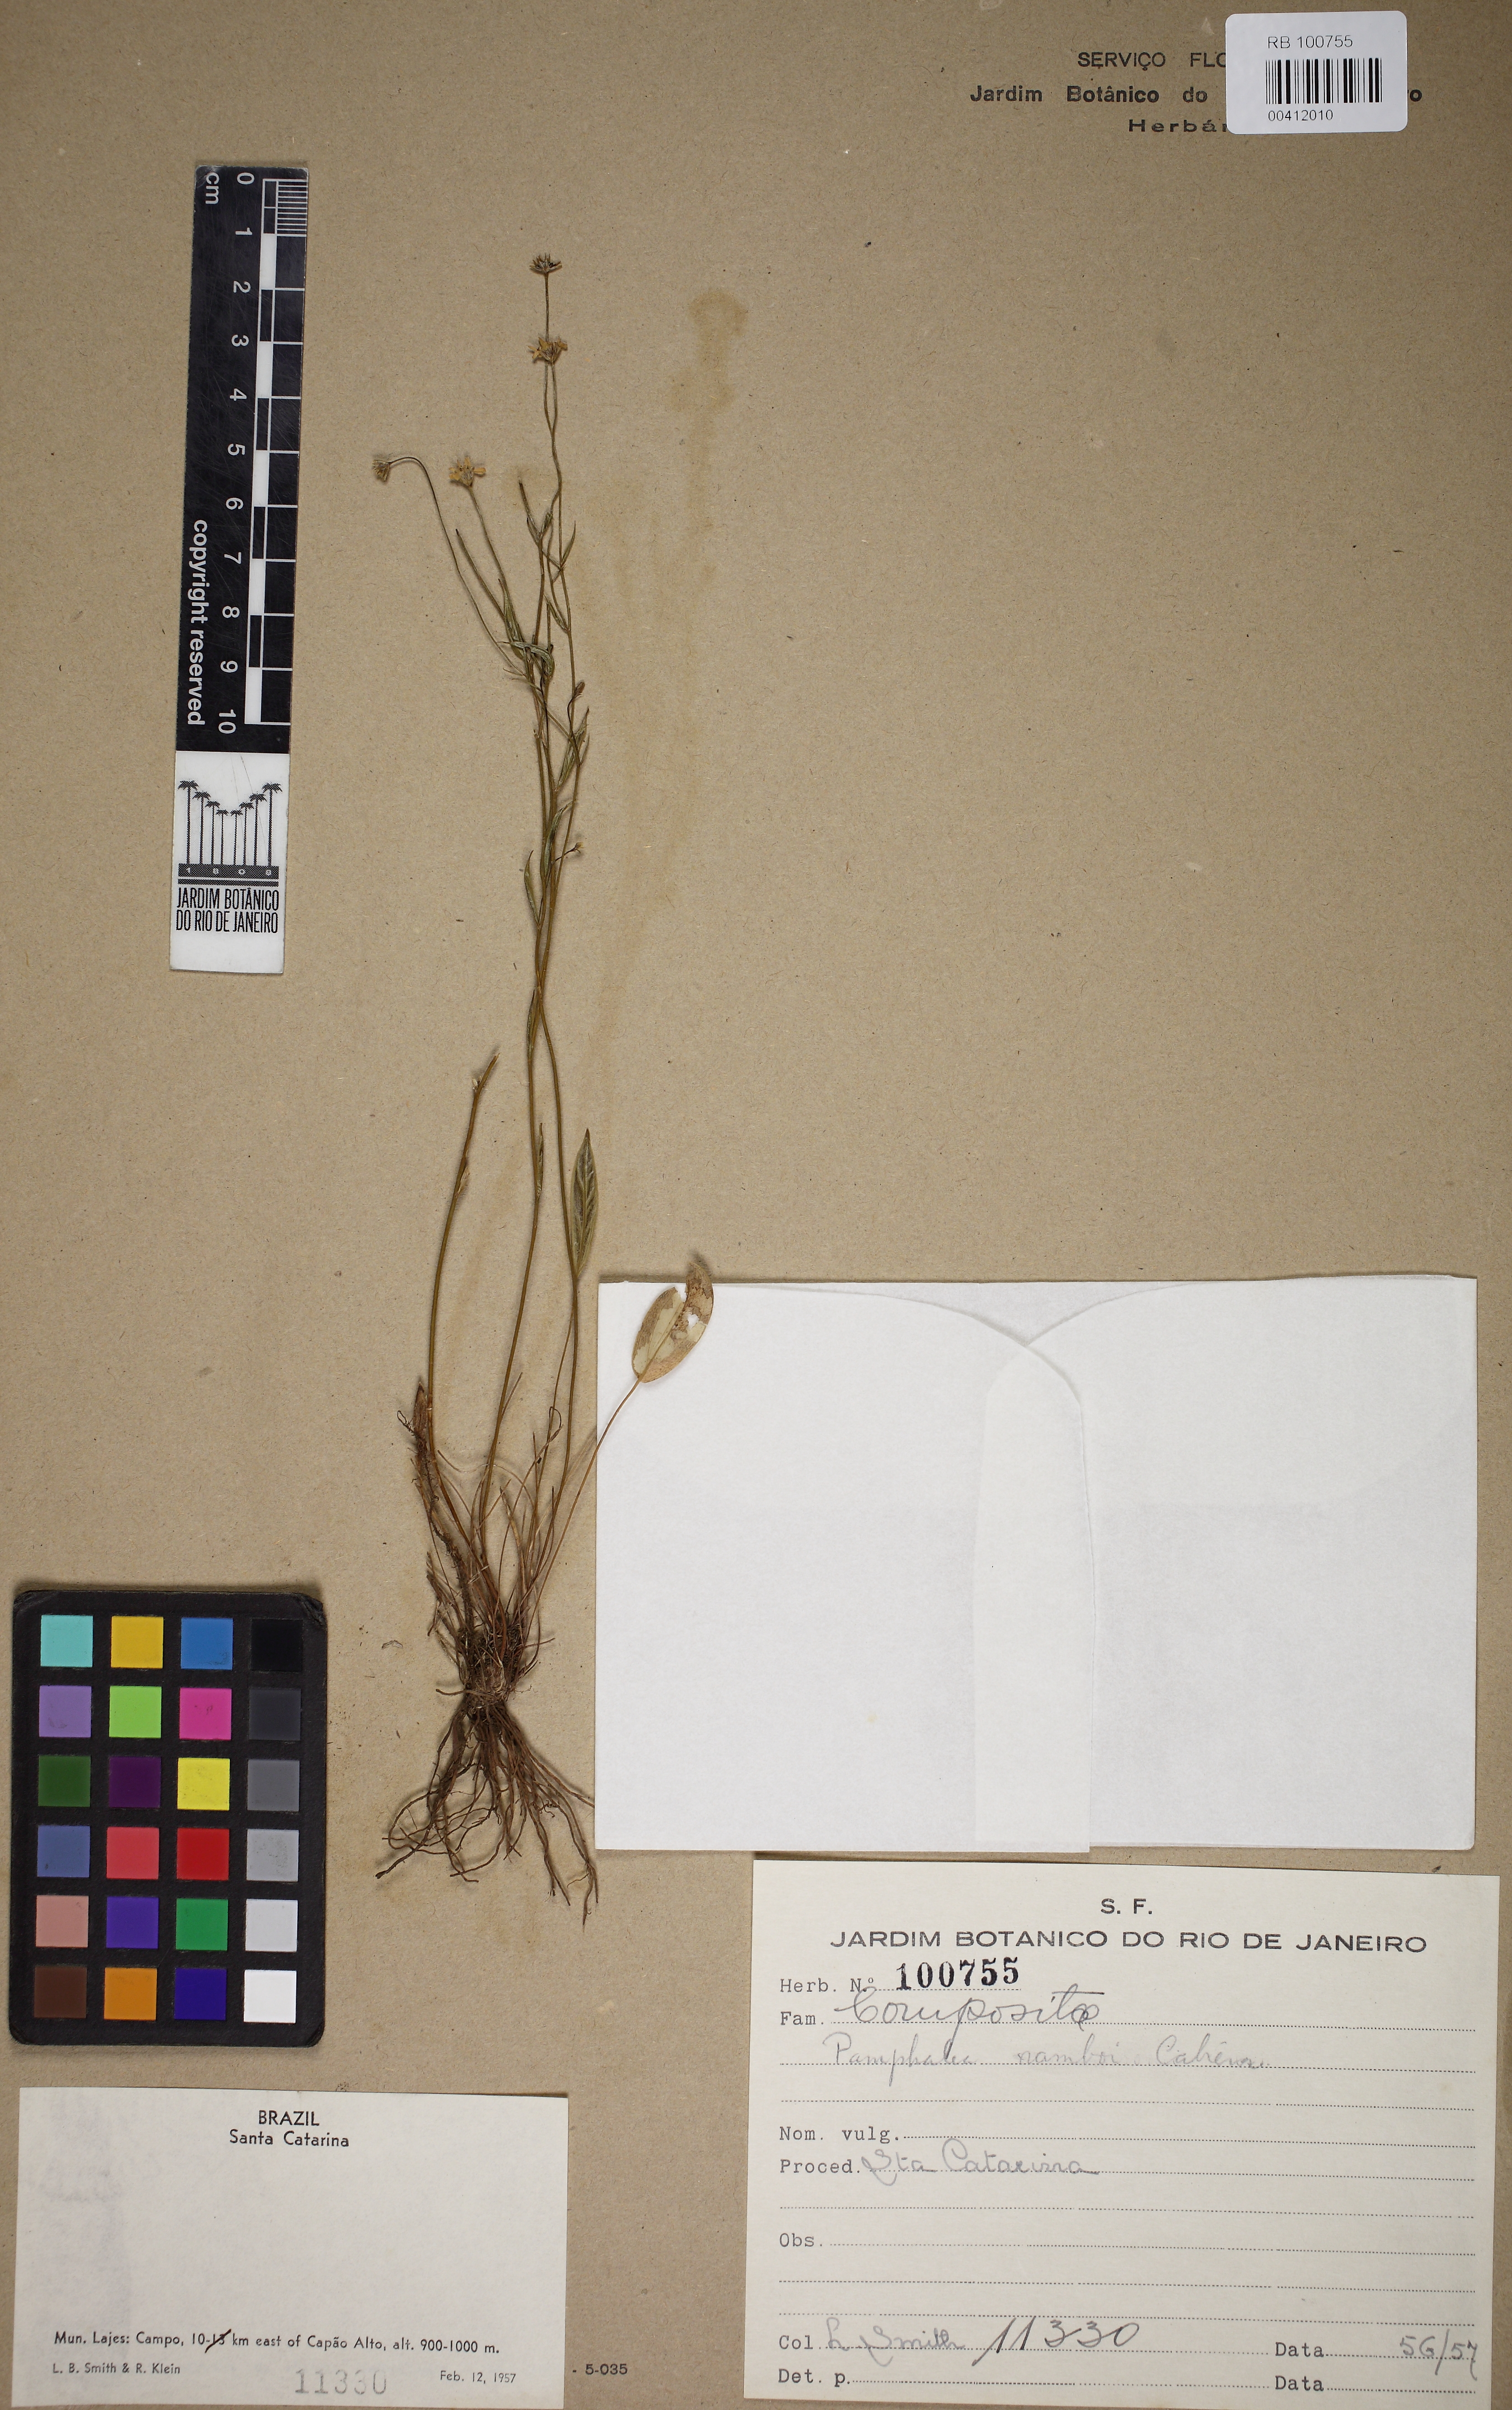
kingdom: Plantae
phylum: Tracheophyta
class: Magnoliopsida
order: Asterales
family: Asteraceae
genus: Panphalea
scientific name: Panphalea ramboi
